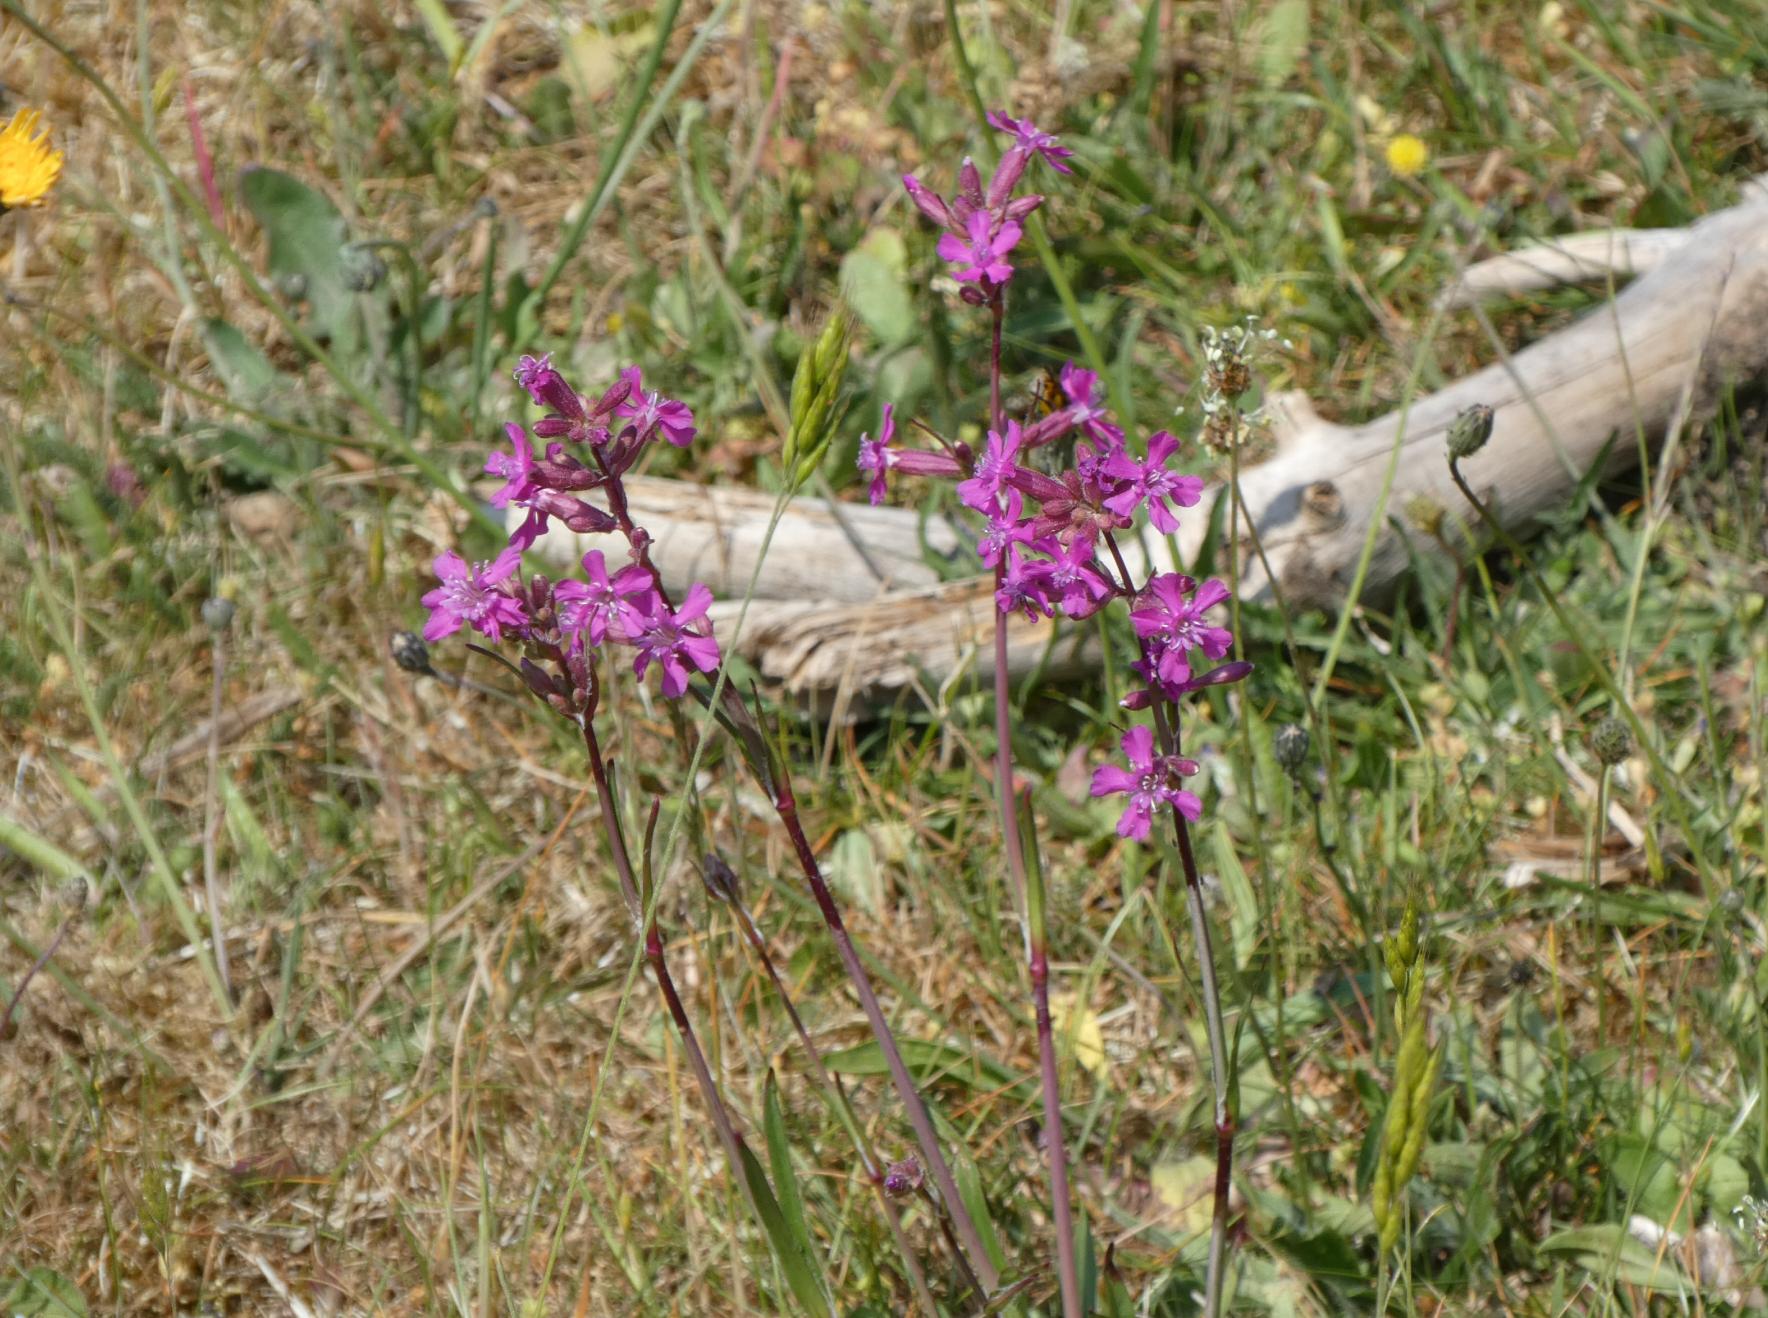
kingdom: Plantae
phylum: Tracheophyta
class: Magnoliopsida
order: Caryophyllales
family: Caryophyllaceae
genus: Viscaria
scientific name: Viscaria vulgaris
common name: Tjærenellike
